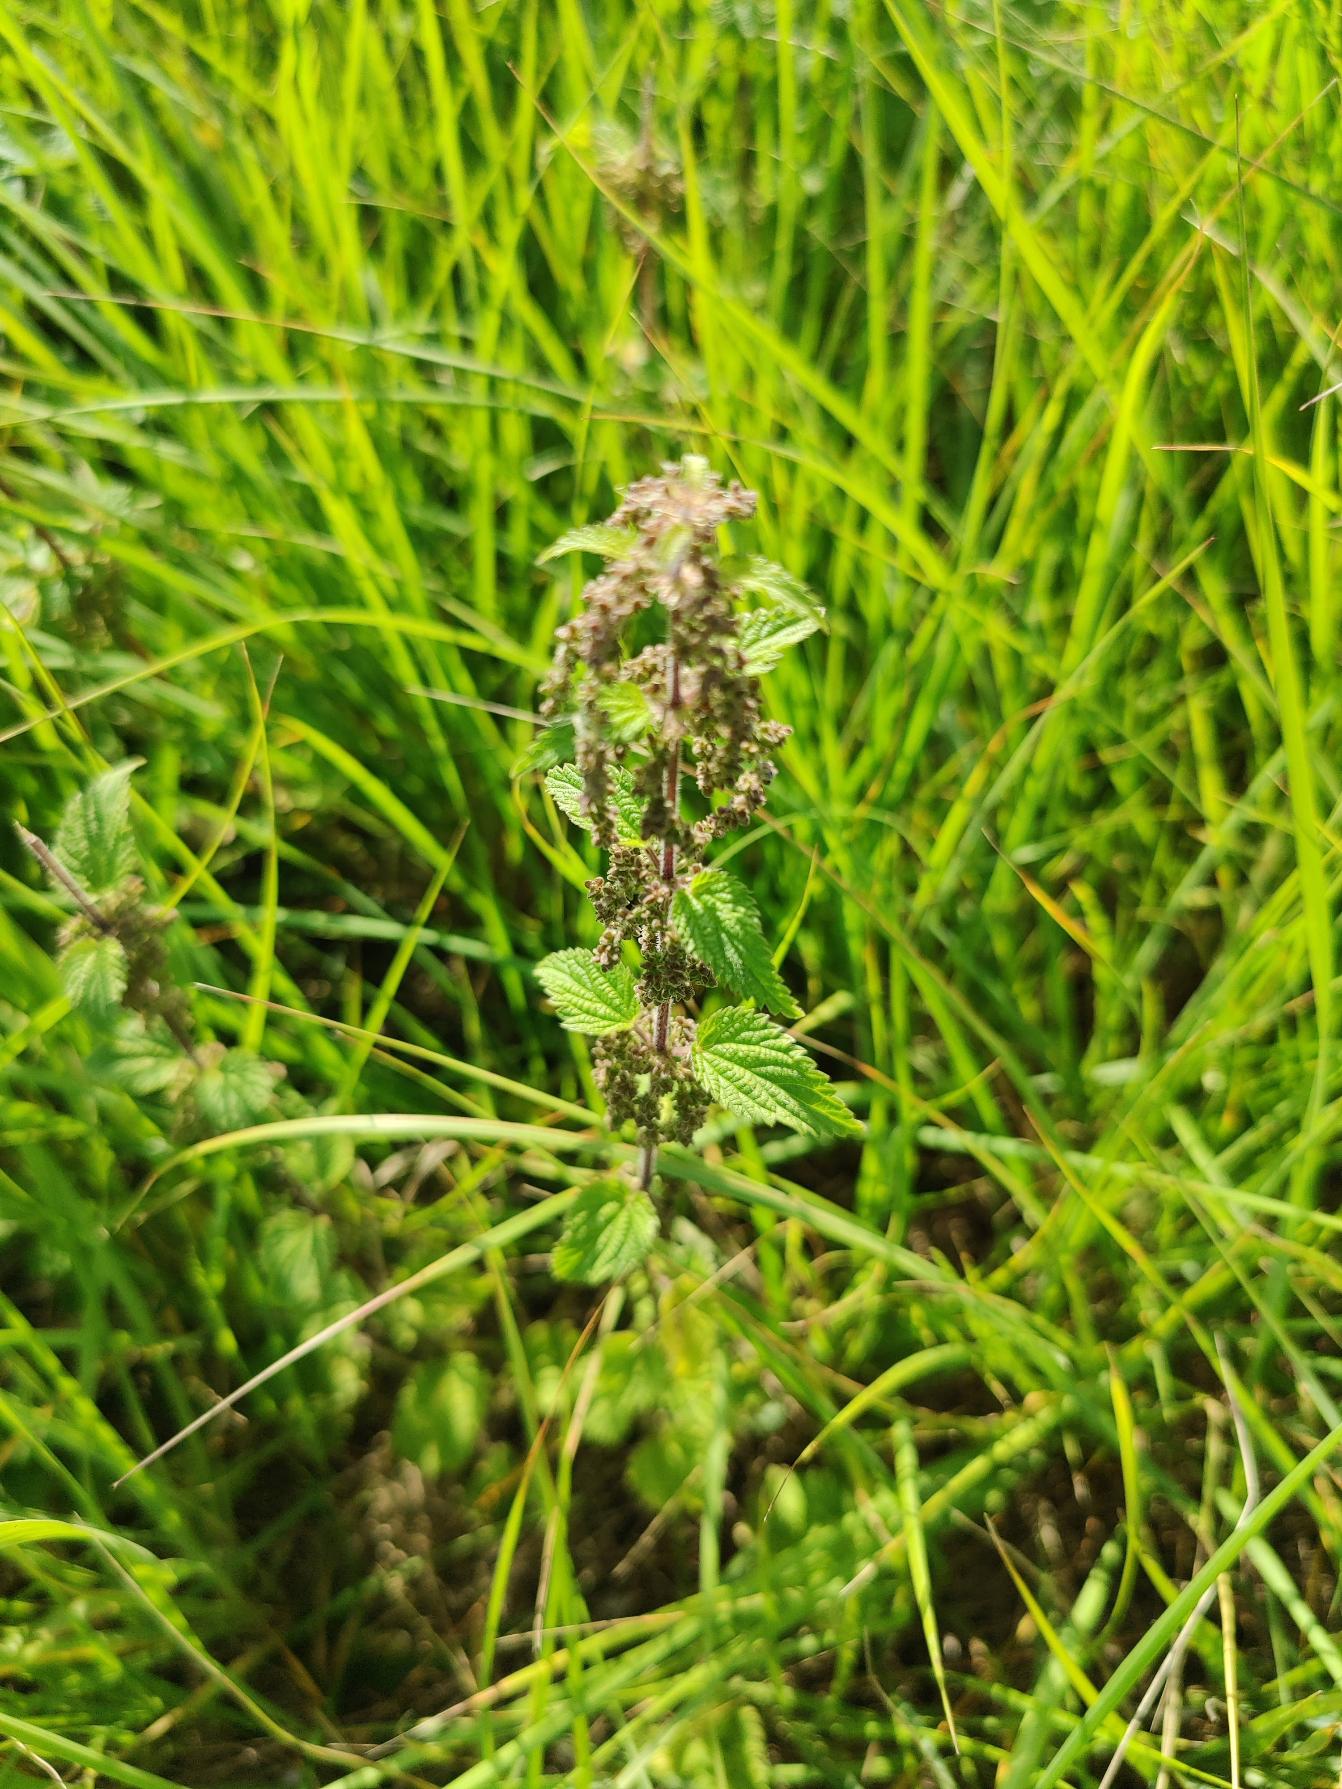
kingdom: Plantae
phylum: Tracheophyta
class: Magnoliopsida
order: Rosales
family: Urticaceae
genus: Urtica
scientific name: Urtica dioica
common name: Stor nælde
